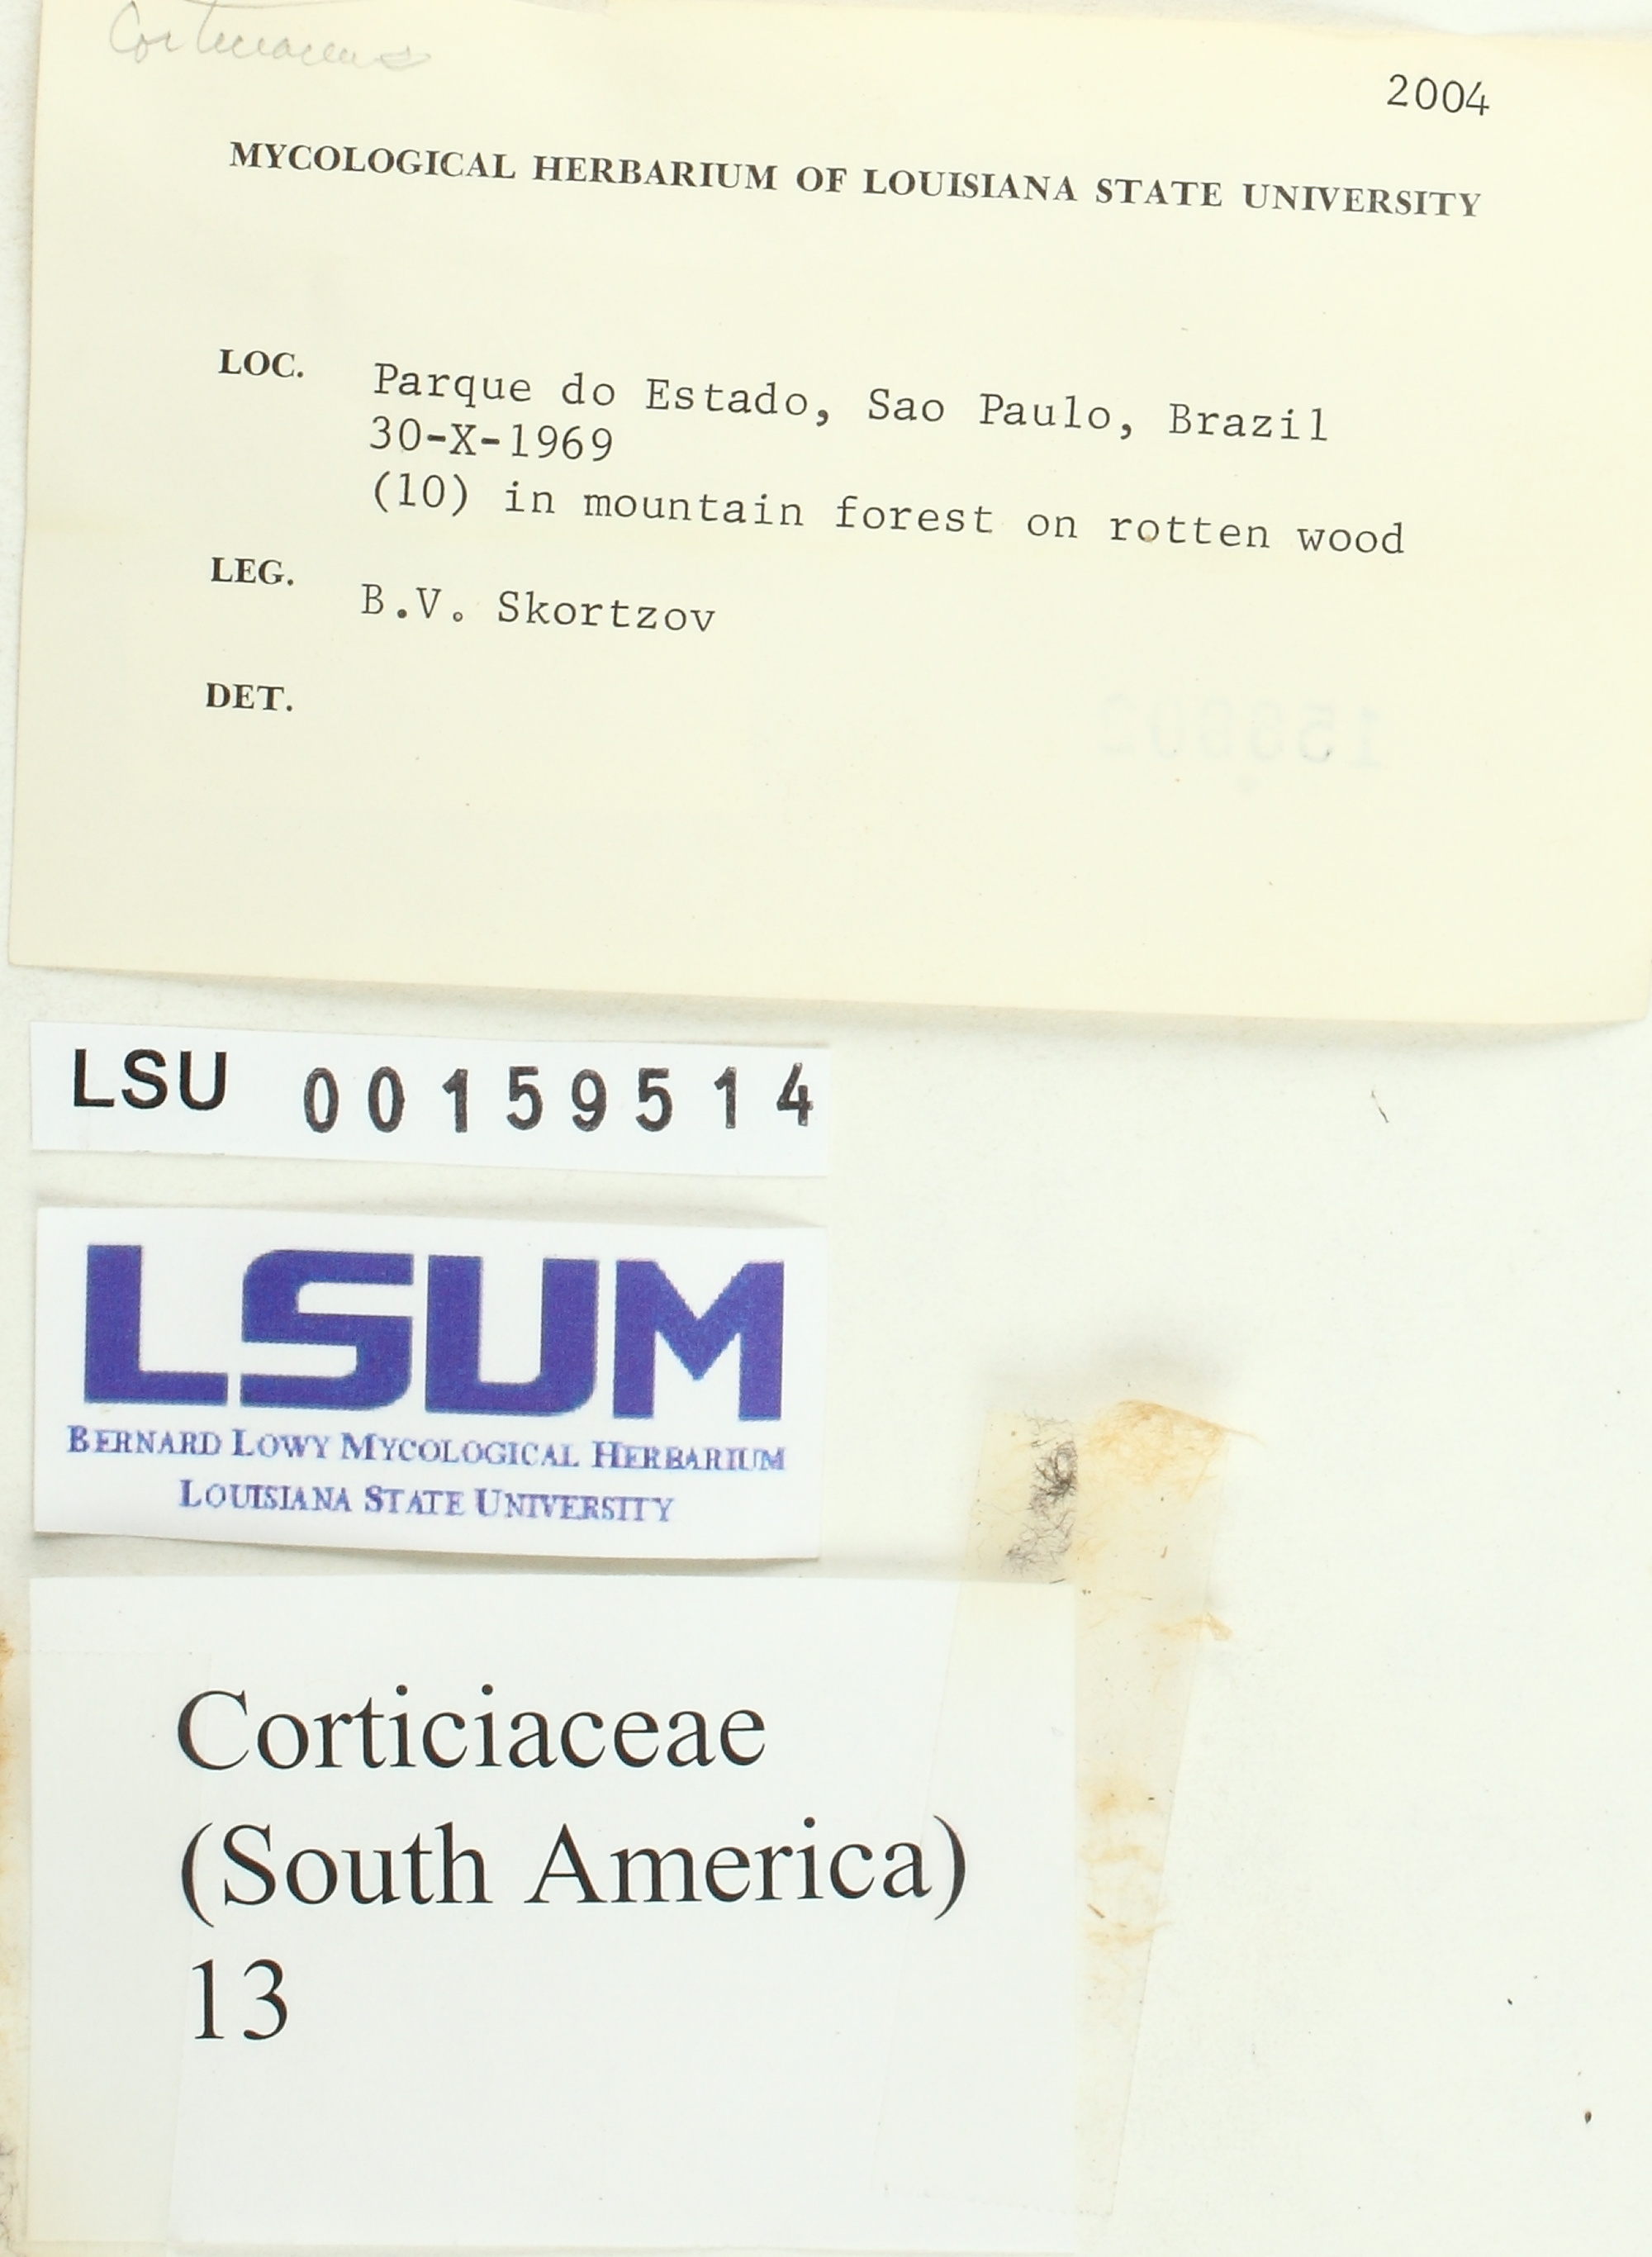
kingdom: Fungi
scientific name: Fungi
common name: Fungi
